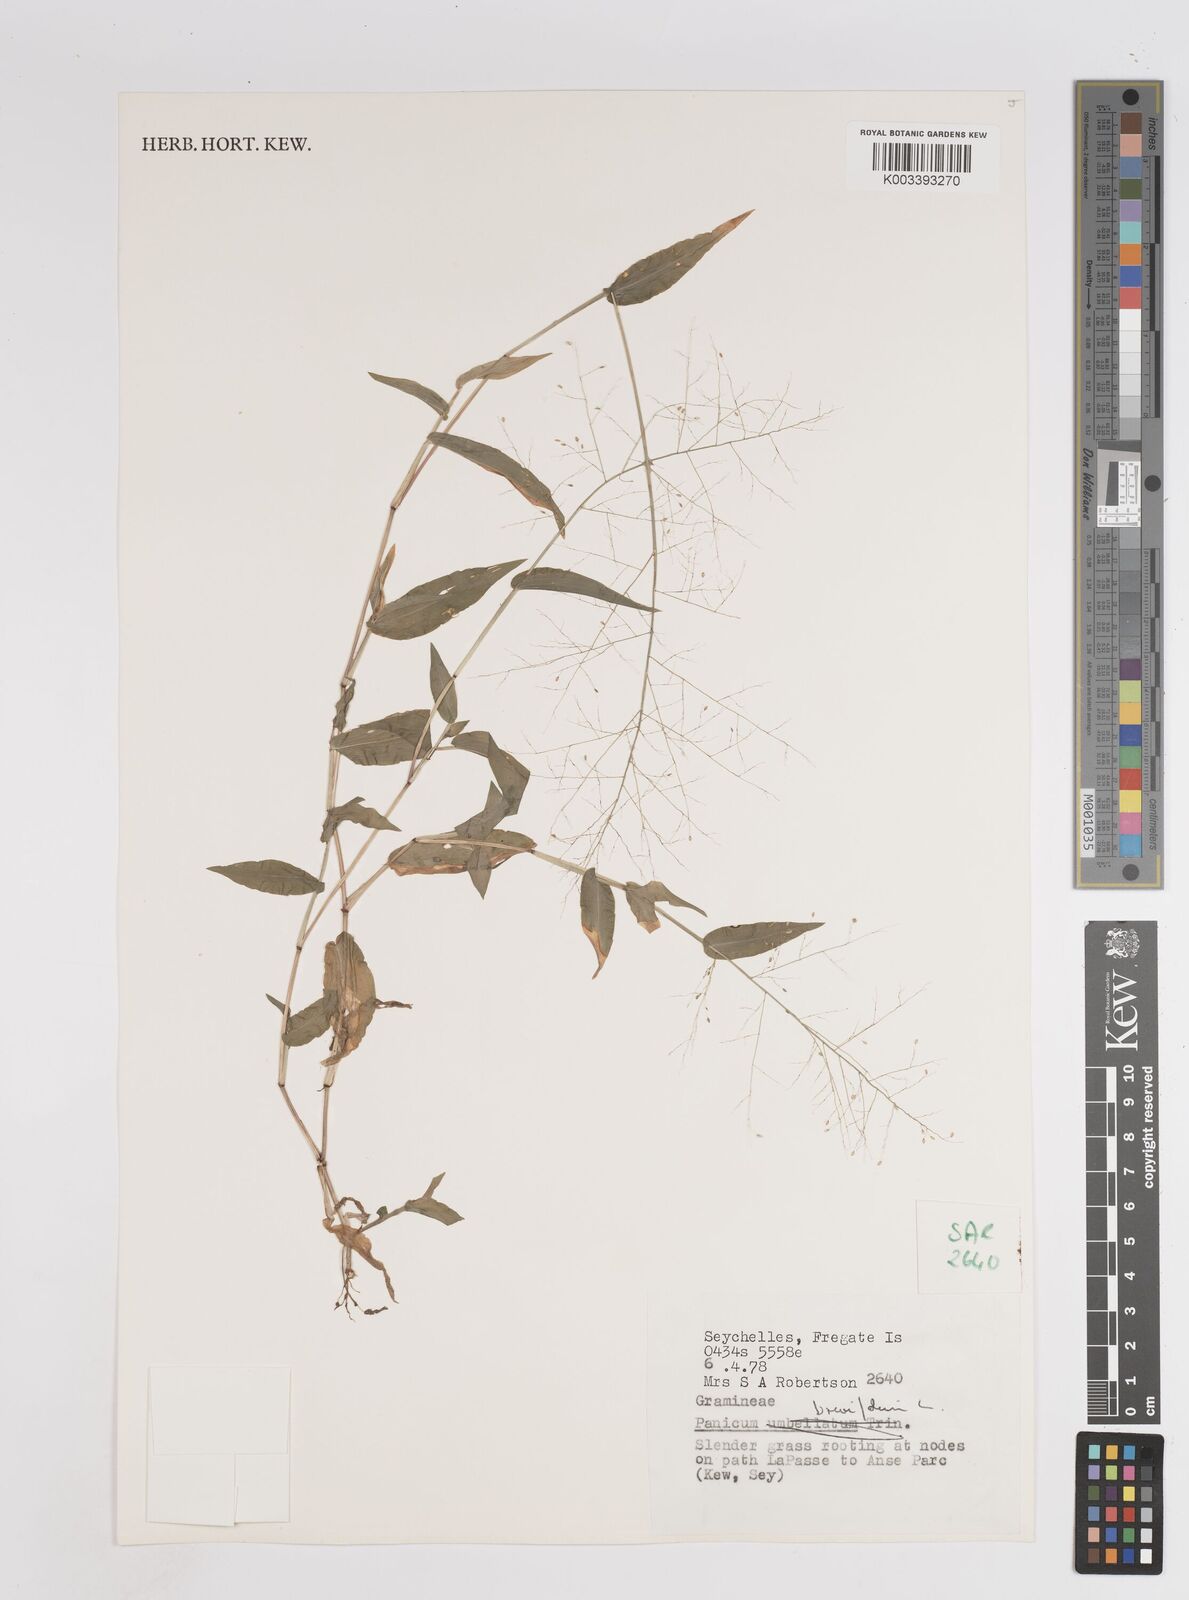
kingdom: Plantae
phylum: Tracheophyta
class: Liliopsida
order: Poales
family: Poaceae
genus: Panicum
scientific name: Panicum brevifolium
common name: Shortleaf panic grass
